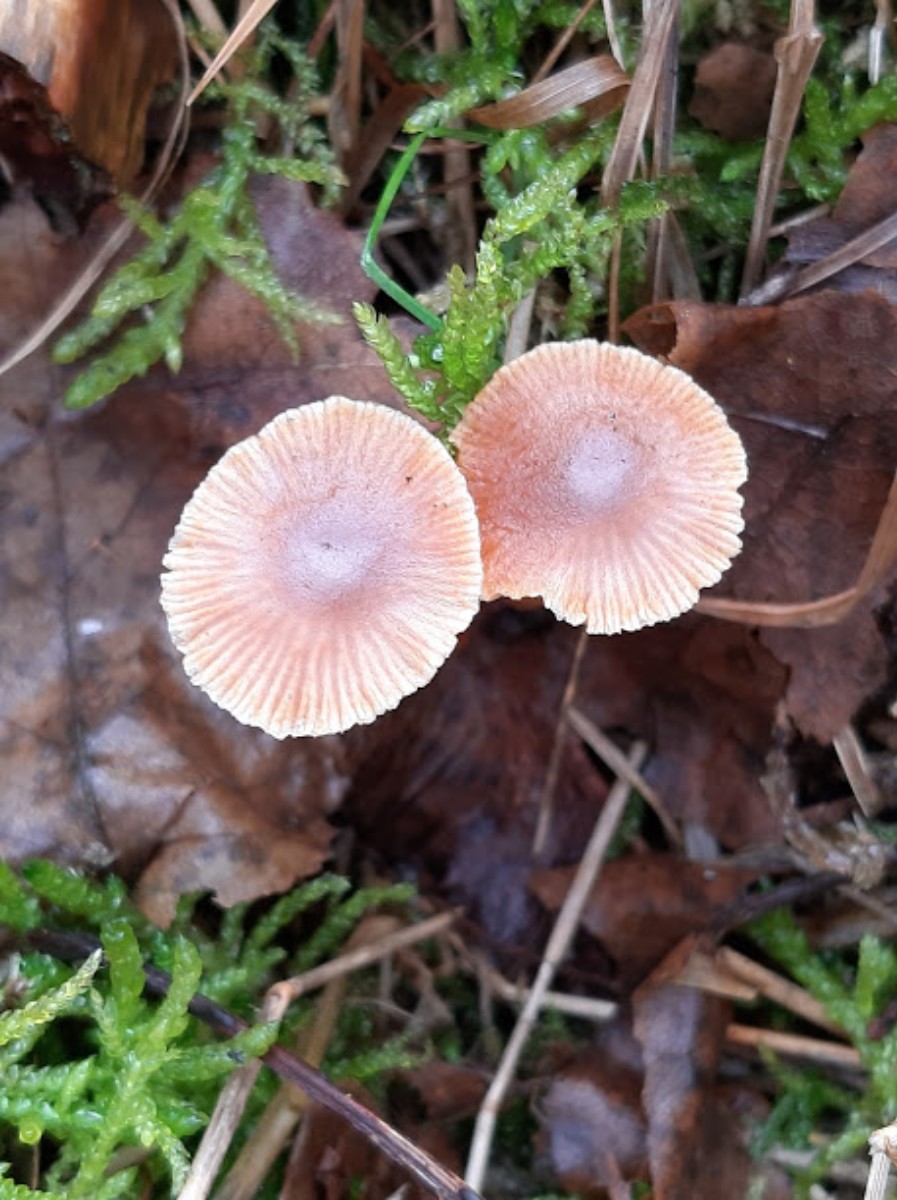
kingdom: Fungi
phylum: Basidiomycota
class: Agaricomycetes
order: Agaricales
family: Tubariaceae
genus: Tubaria
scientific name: Tubaria furfuracea
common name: kliddet fnughat
